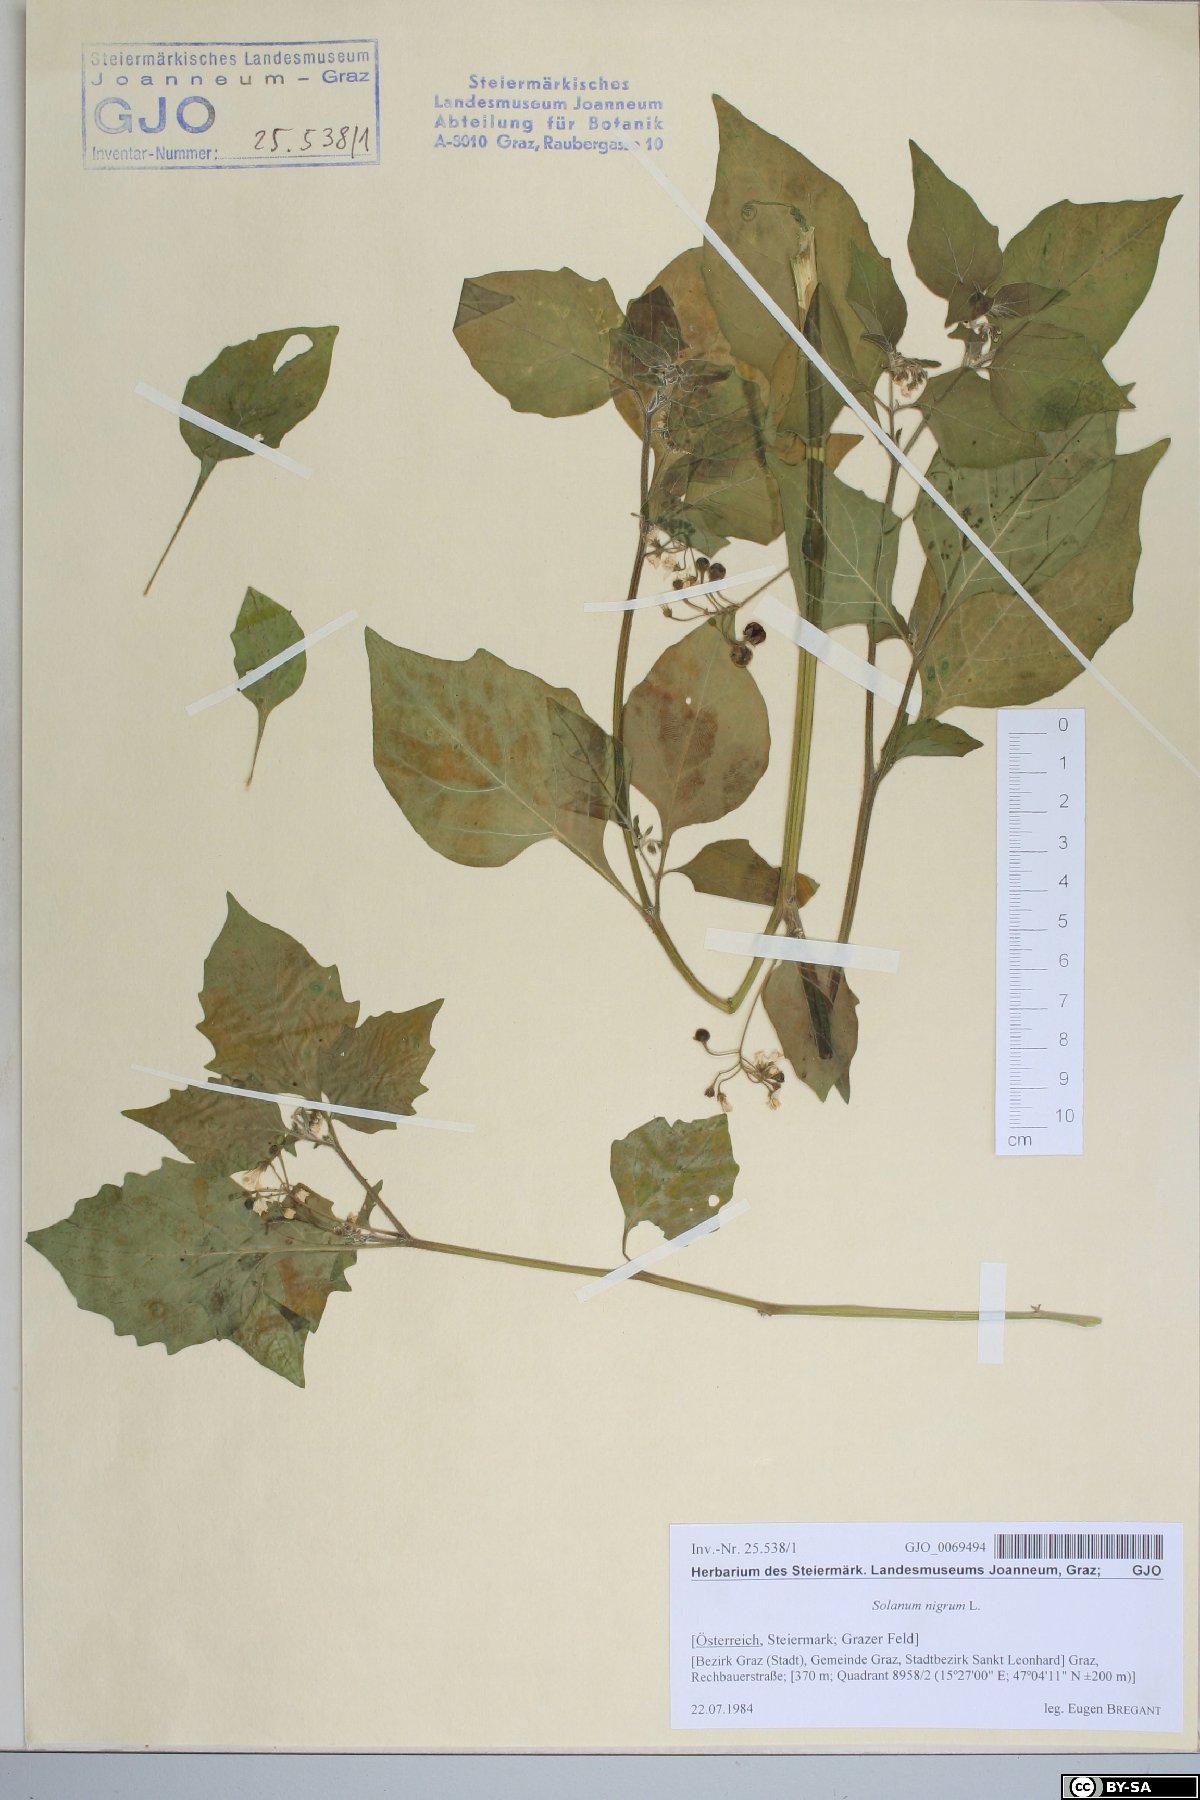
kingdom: Plantae
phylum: Tracheophyta
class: Magnoliopsida
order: Solanales
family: Solanaceae
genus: Solanum
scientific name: Solanum nigrum
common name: Black nightshade
